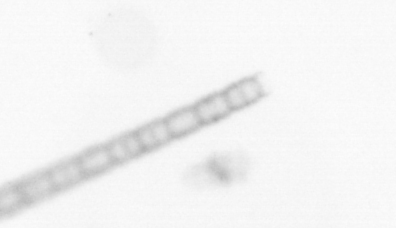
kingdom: Chromista
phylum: Ochrophyta
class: Bacillariophyceae
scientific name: Bacillariophyceae
